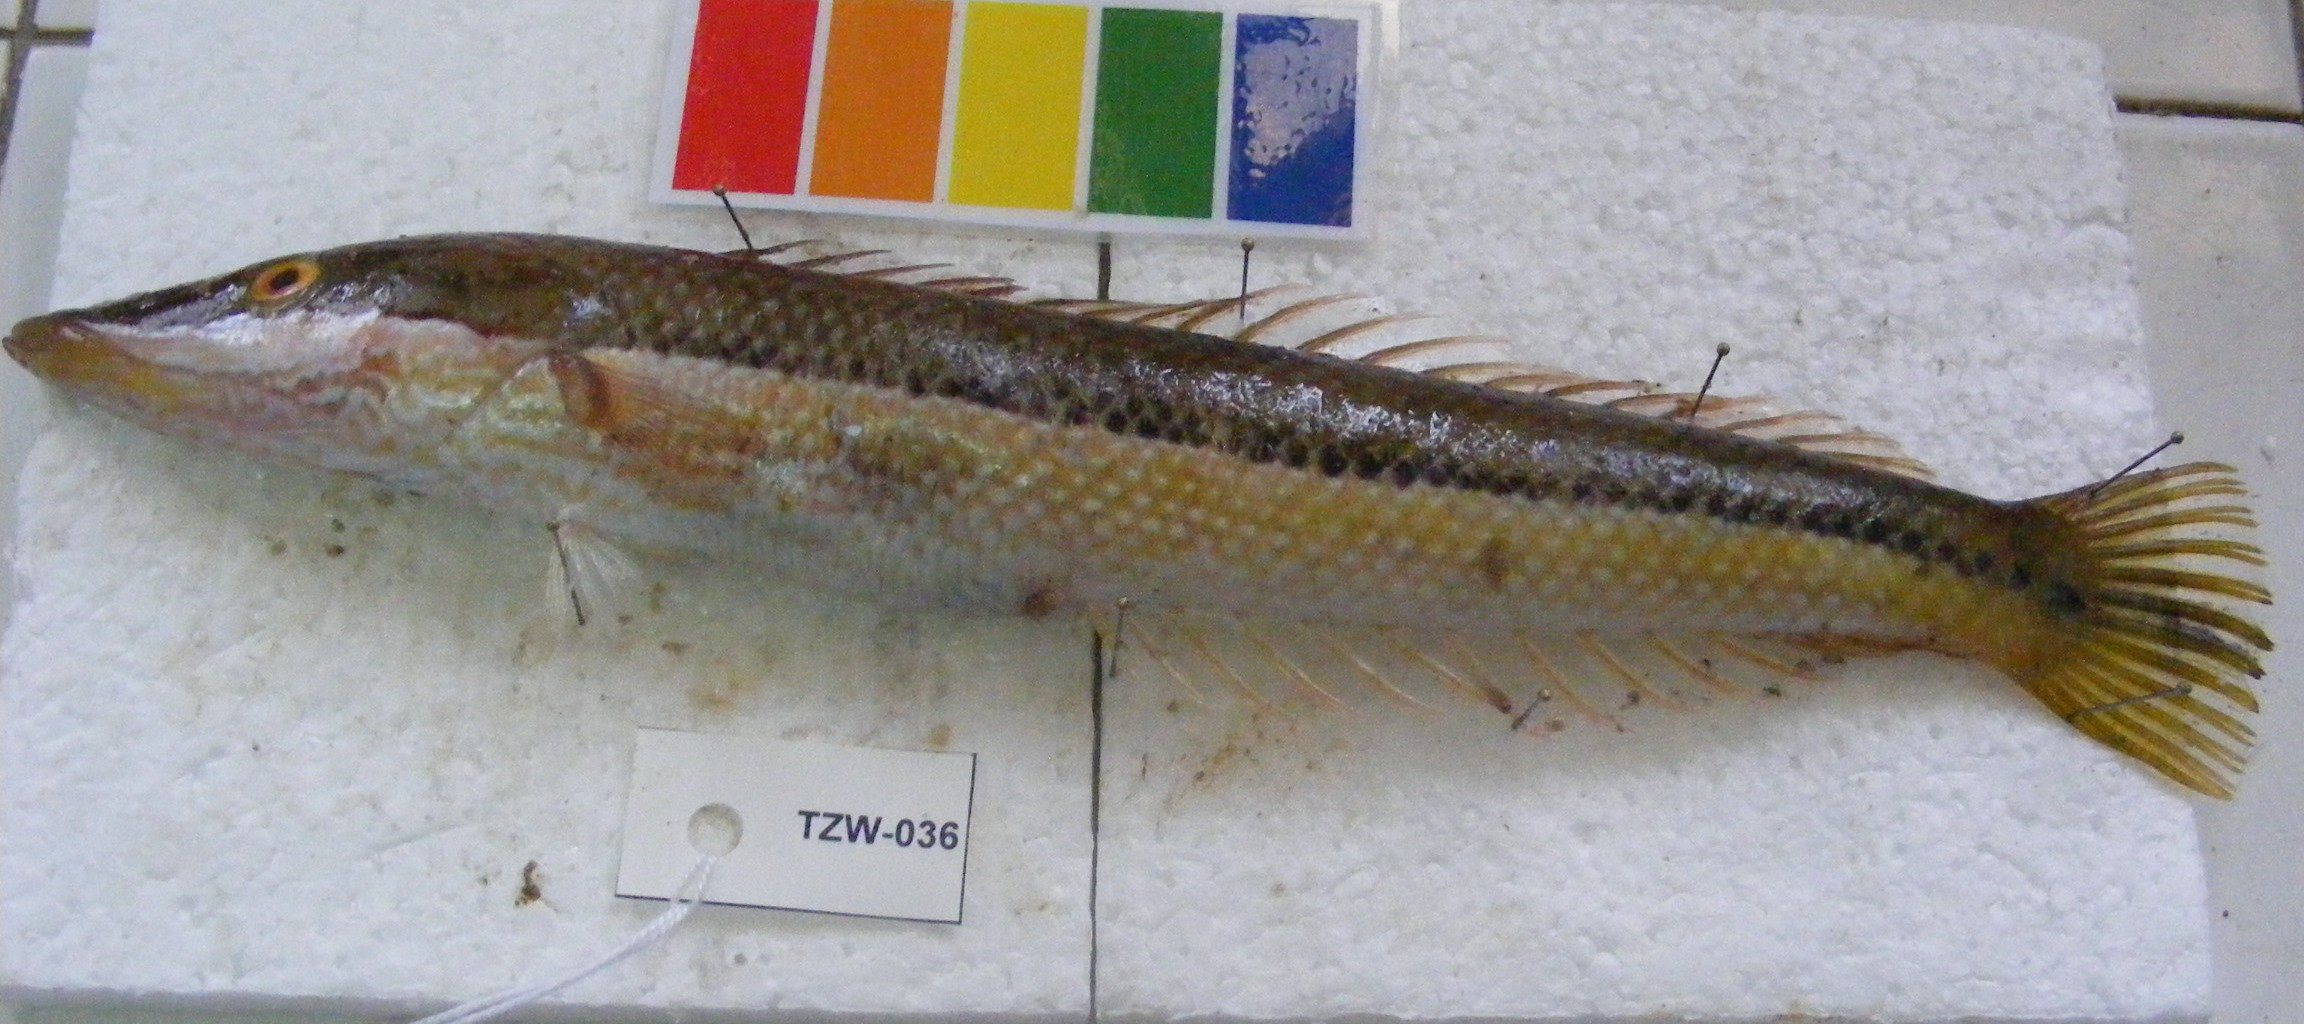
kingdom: Animalia
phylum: Chordata
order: Perciformes
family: Labridae
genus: Cheilio
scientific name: Cheilio inermis
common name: Cigar wrasse
